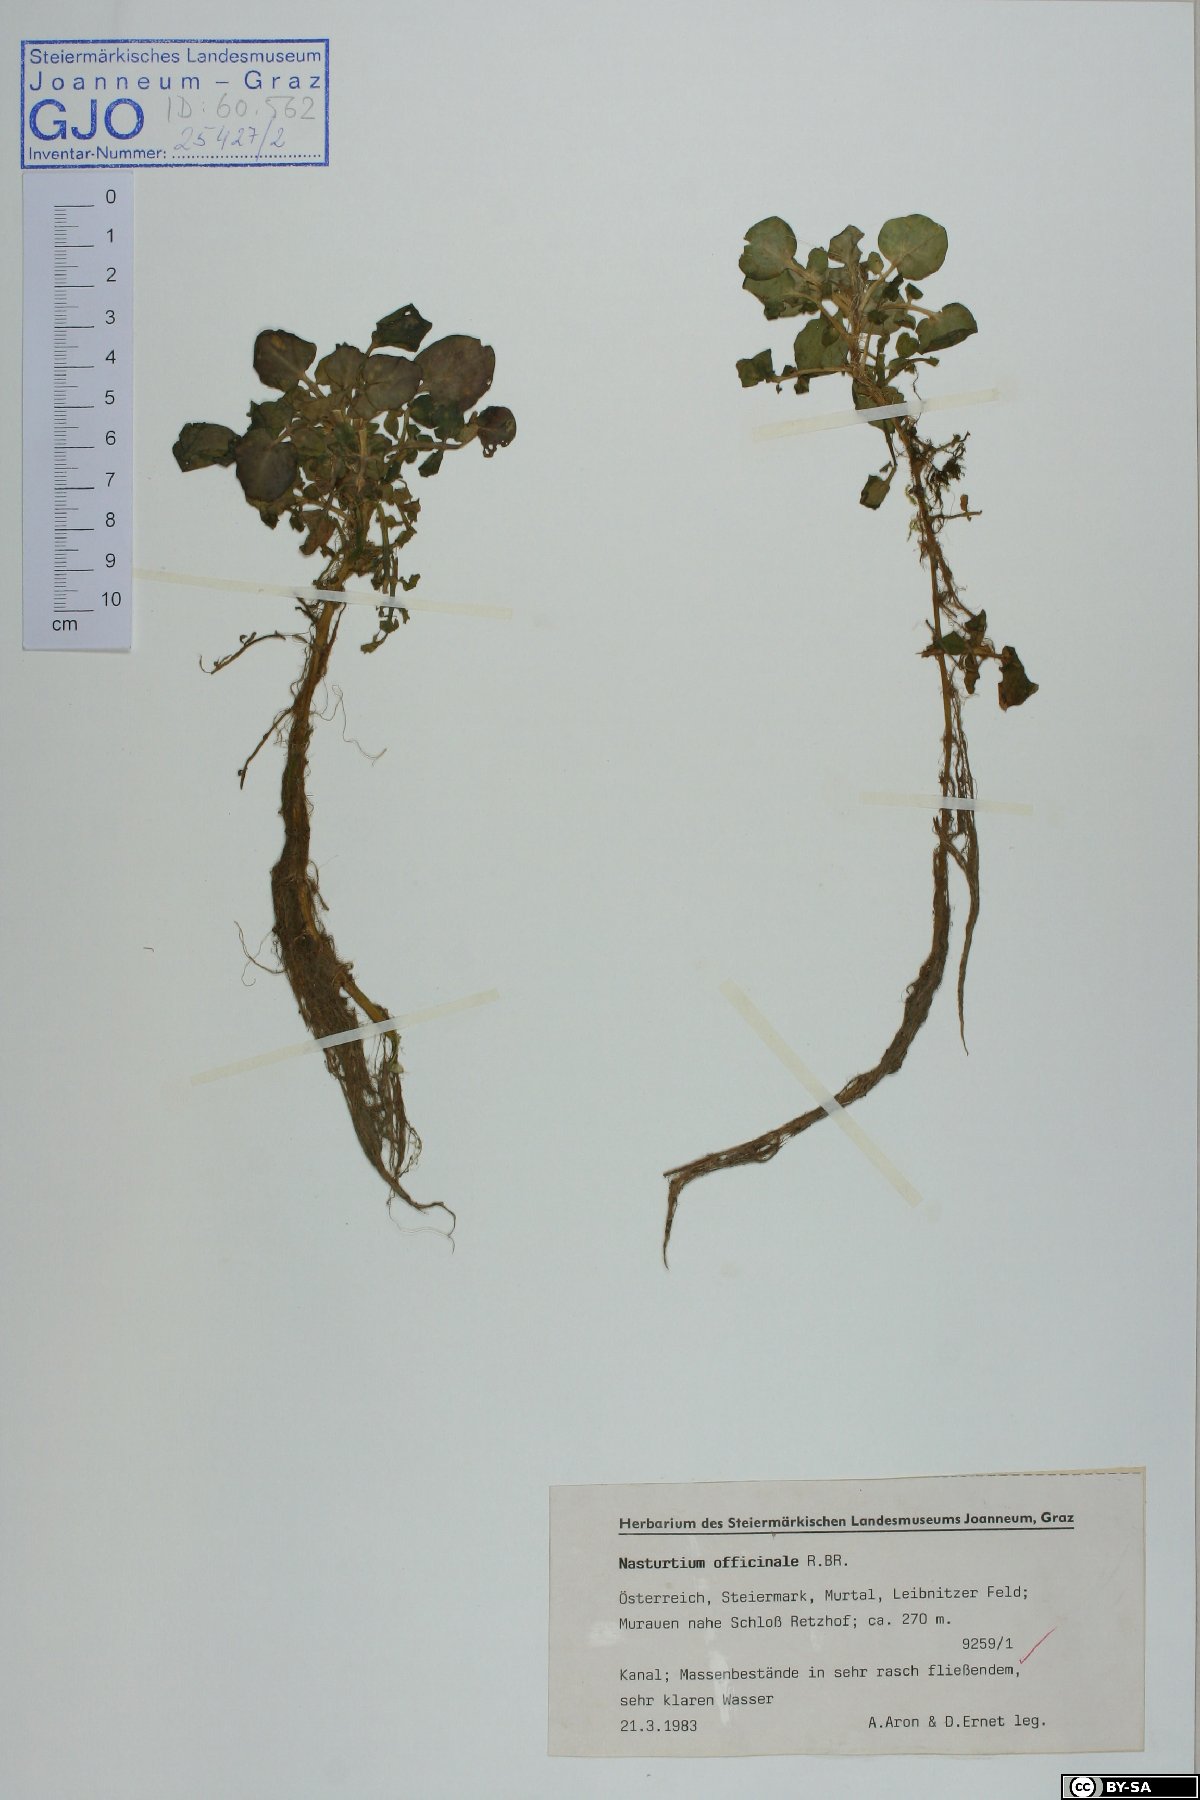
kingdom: Plantae
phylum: Tracheophyta
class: Magnoliopsida
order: Brassicales
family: Brassicaceae
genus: Nasturtium
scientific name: Nasturtium officinale
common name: Watercress
